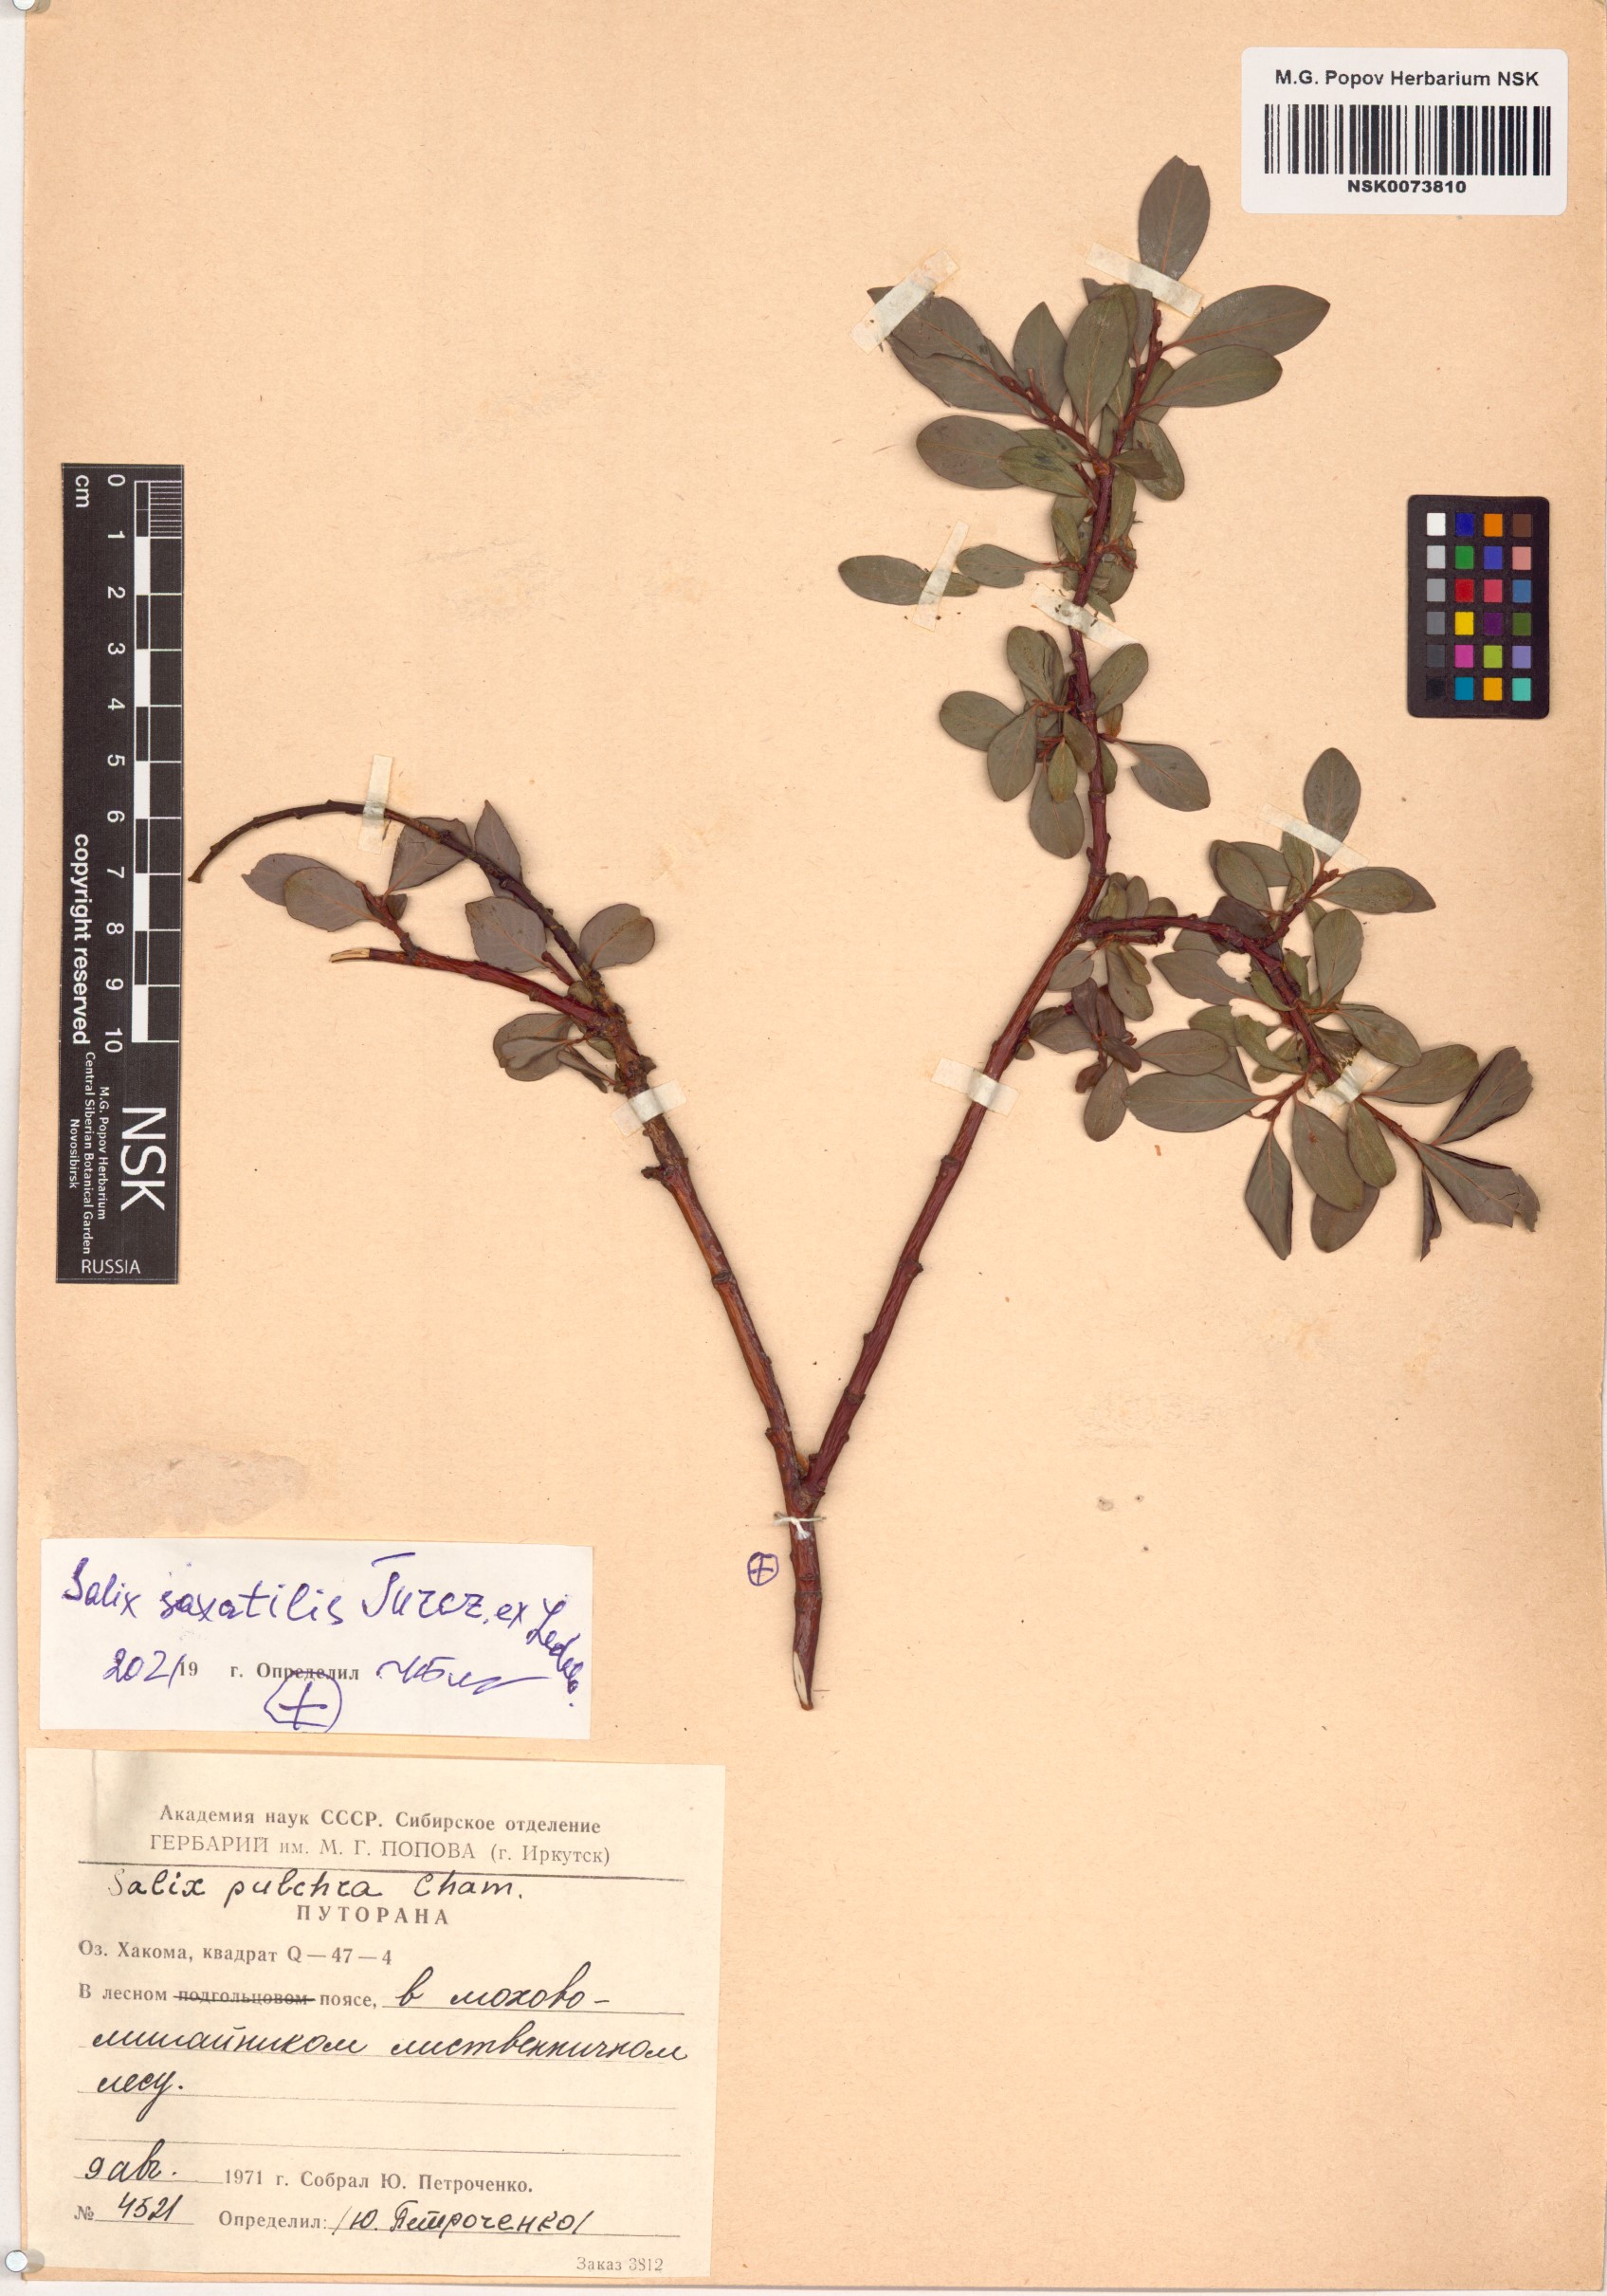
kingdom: Plantae
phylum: Tracheophyta
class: Magnoliopsida
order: Malpighiales
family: Salicaceae
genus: Salix
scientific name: Salix saxatilis
